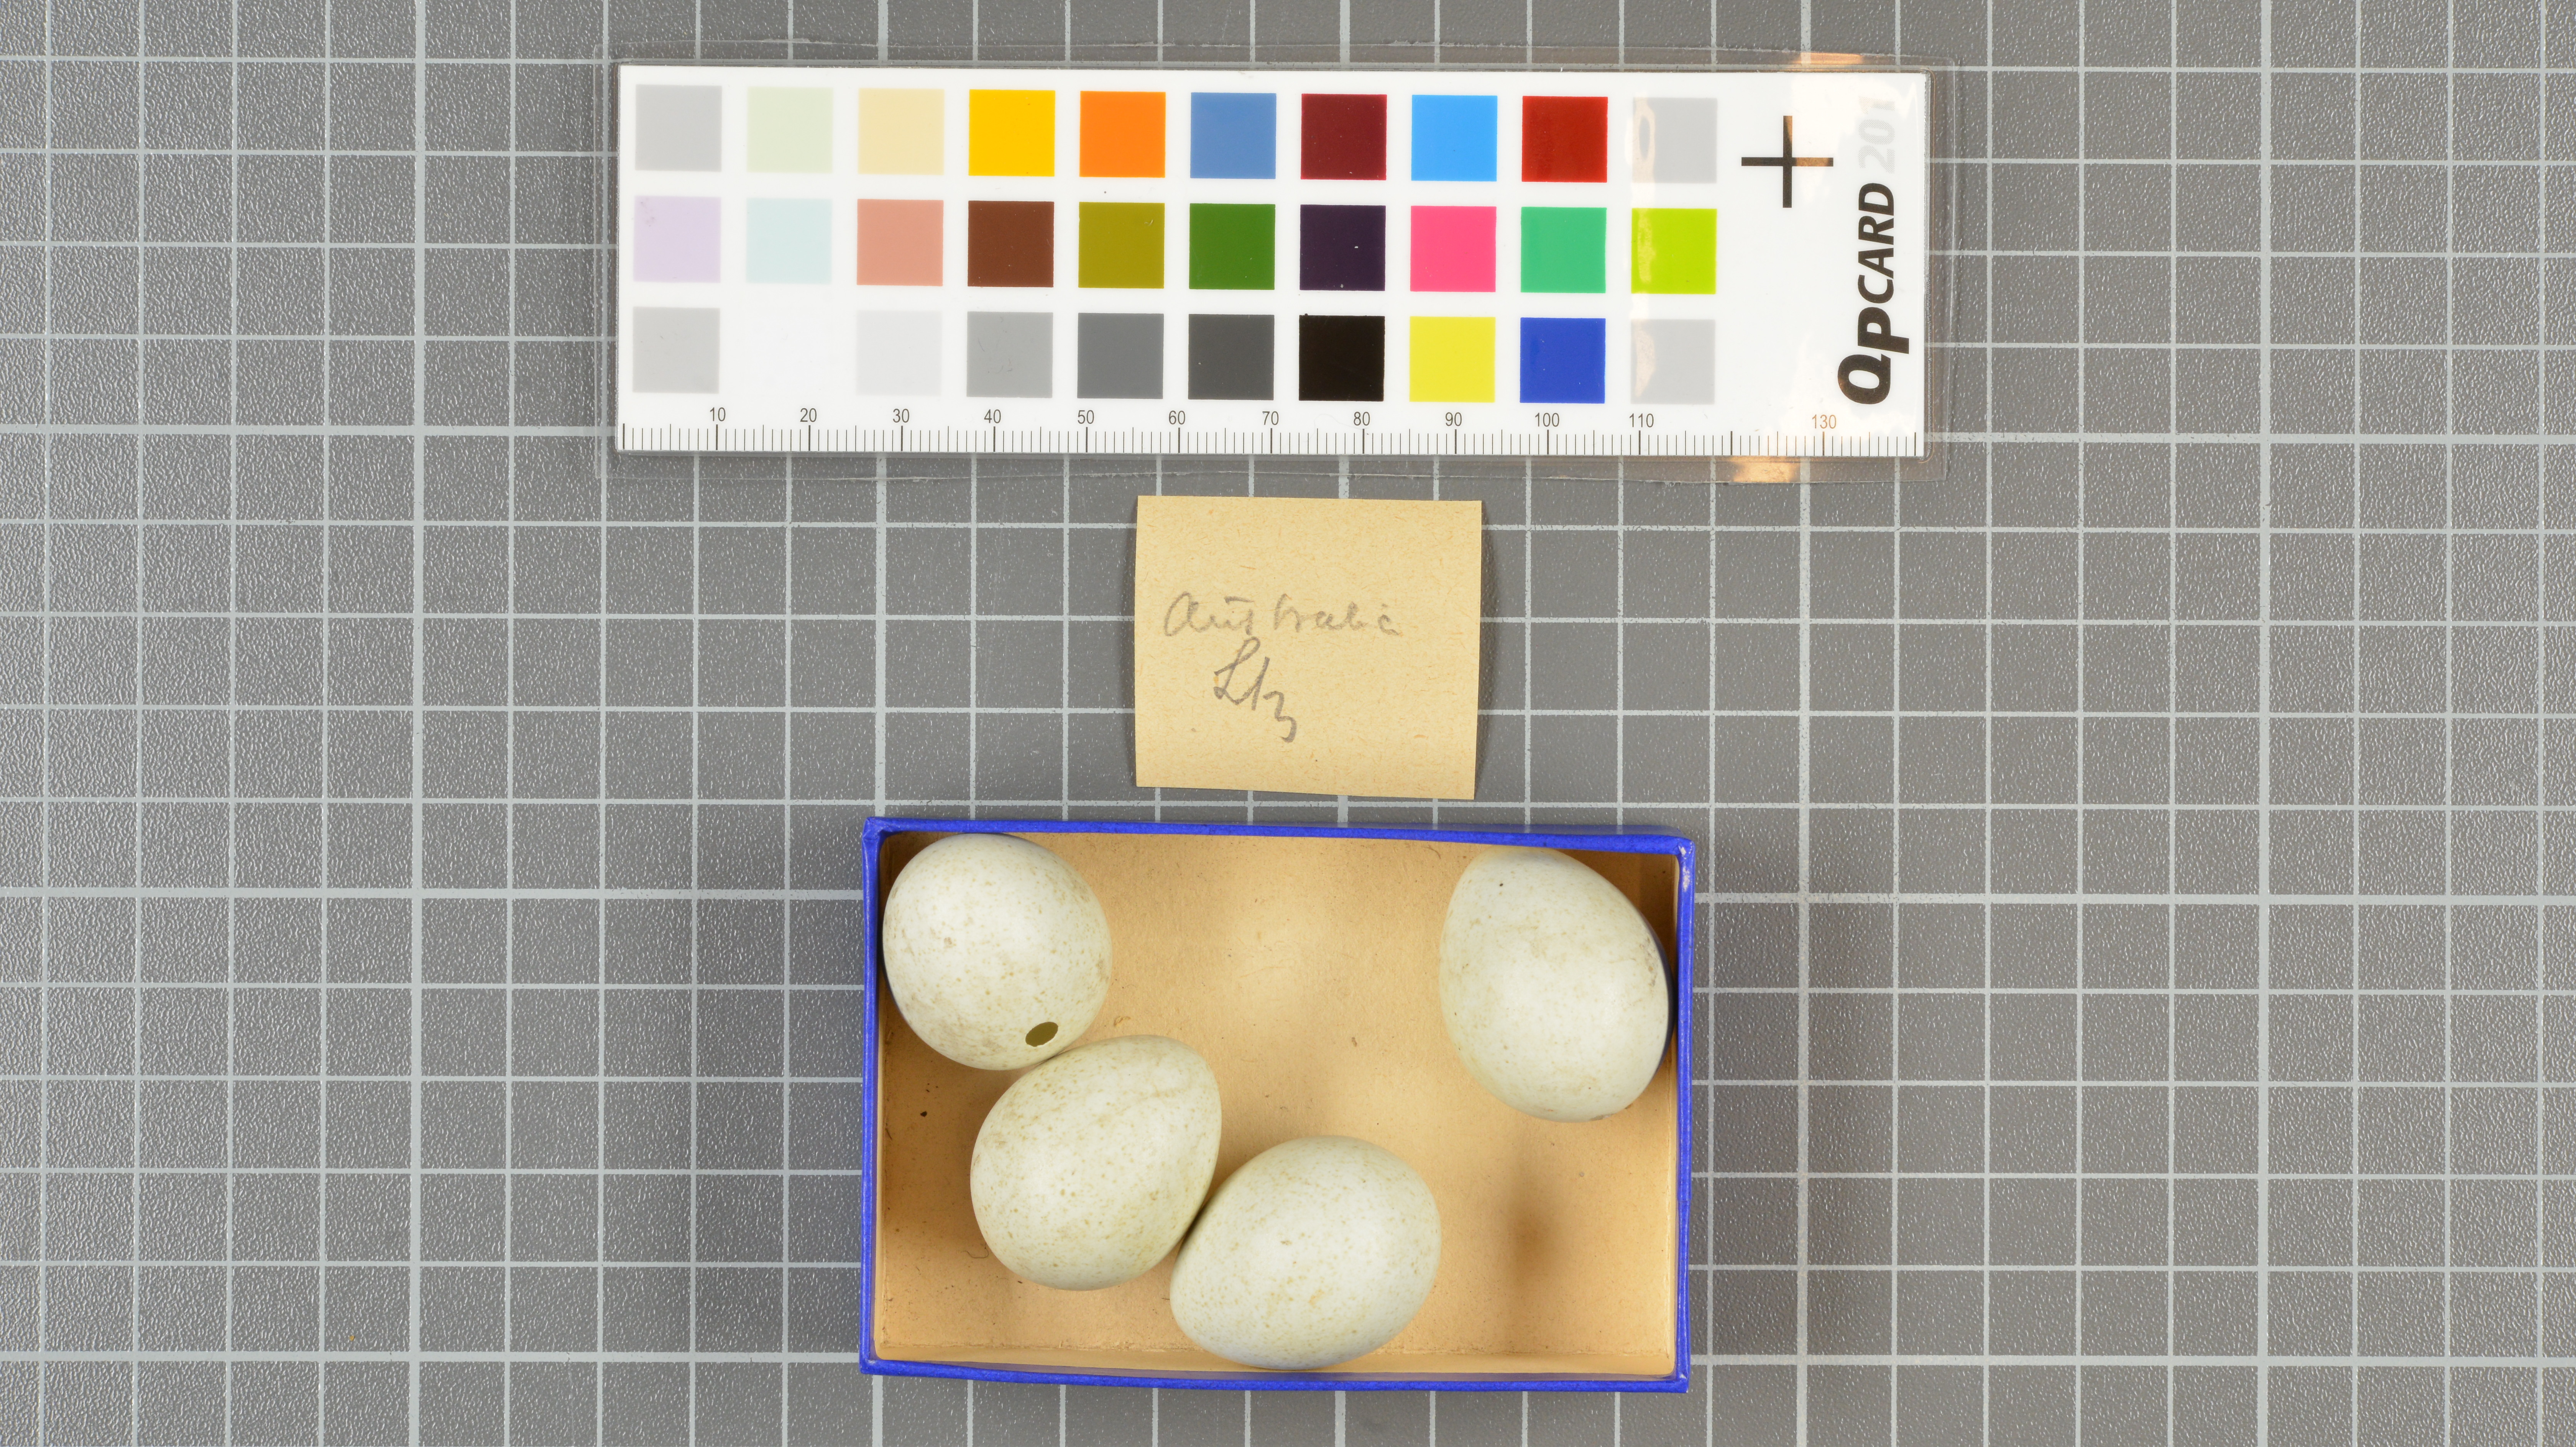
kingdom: Animalia
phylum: Chordata
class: Aves
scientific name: Aves
